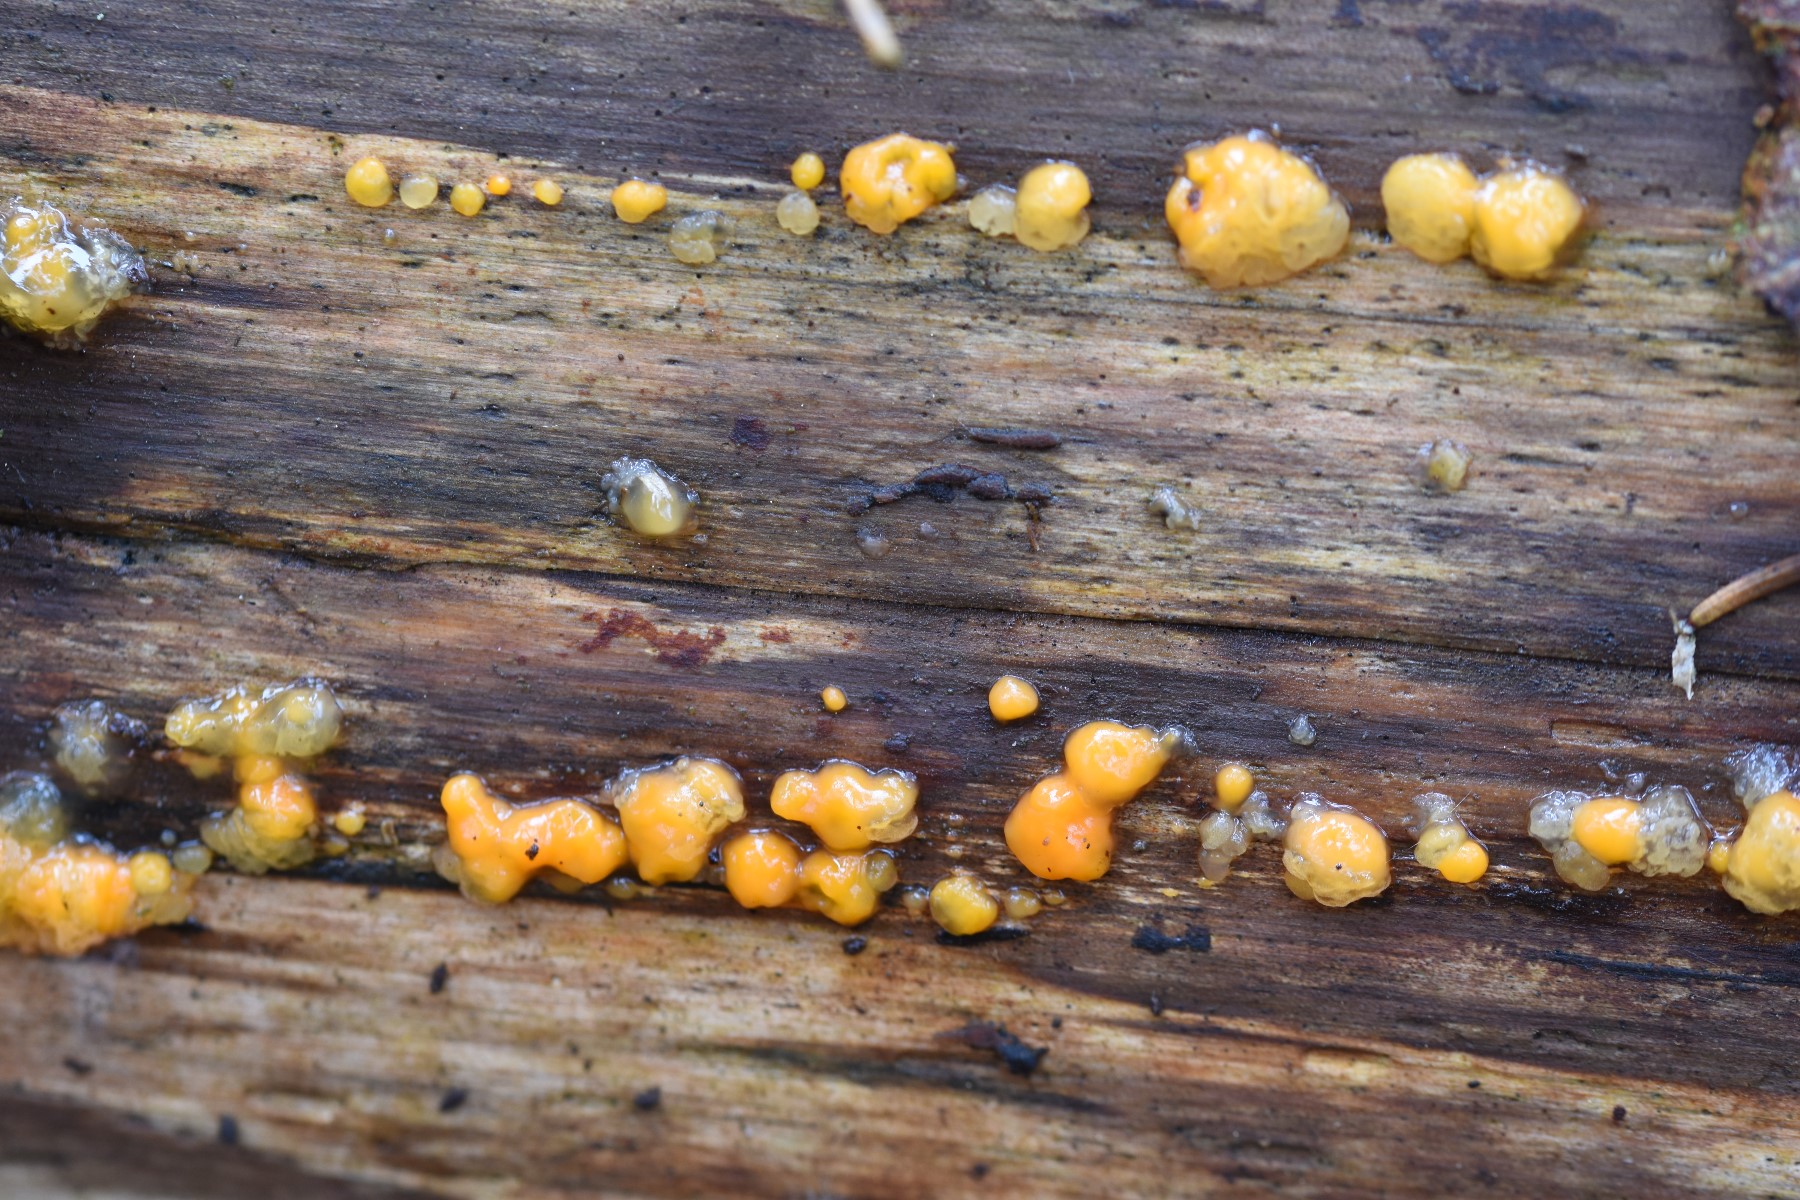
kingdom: Fungi
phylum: Basidiomycota
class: Dacrymycetes
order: Dacrymycetales
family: Dacrymycetaceae
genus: Dacrymyces
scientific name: Dacrymyces stillatus
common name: almindelig tåresvamp
